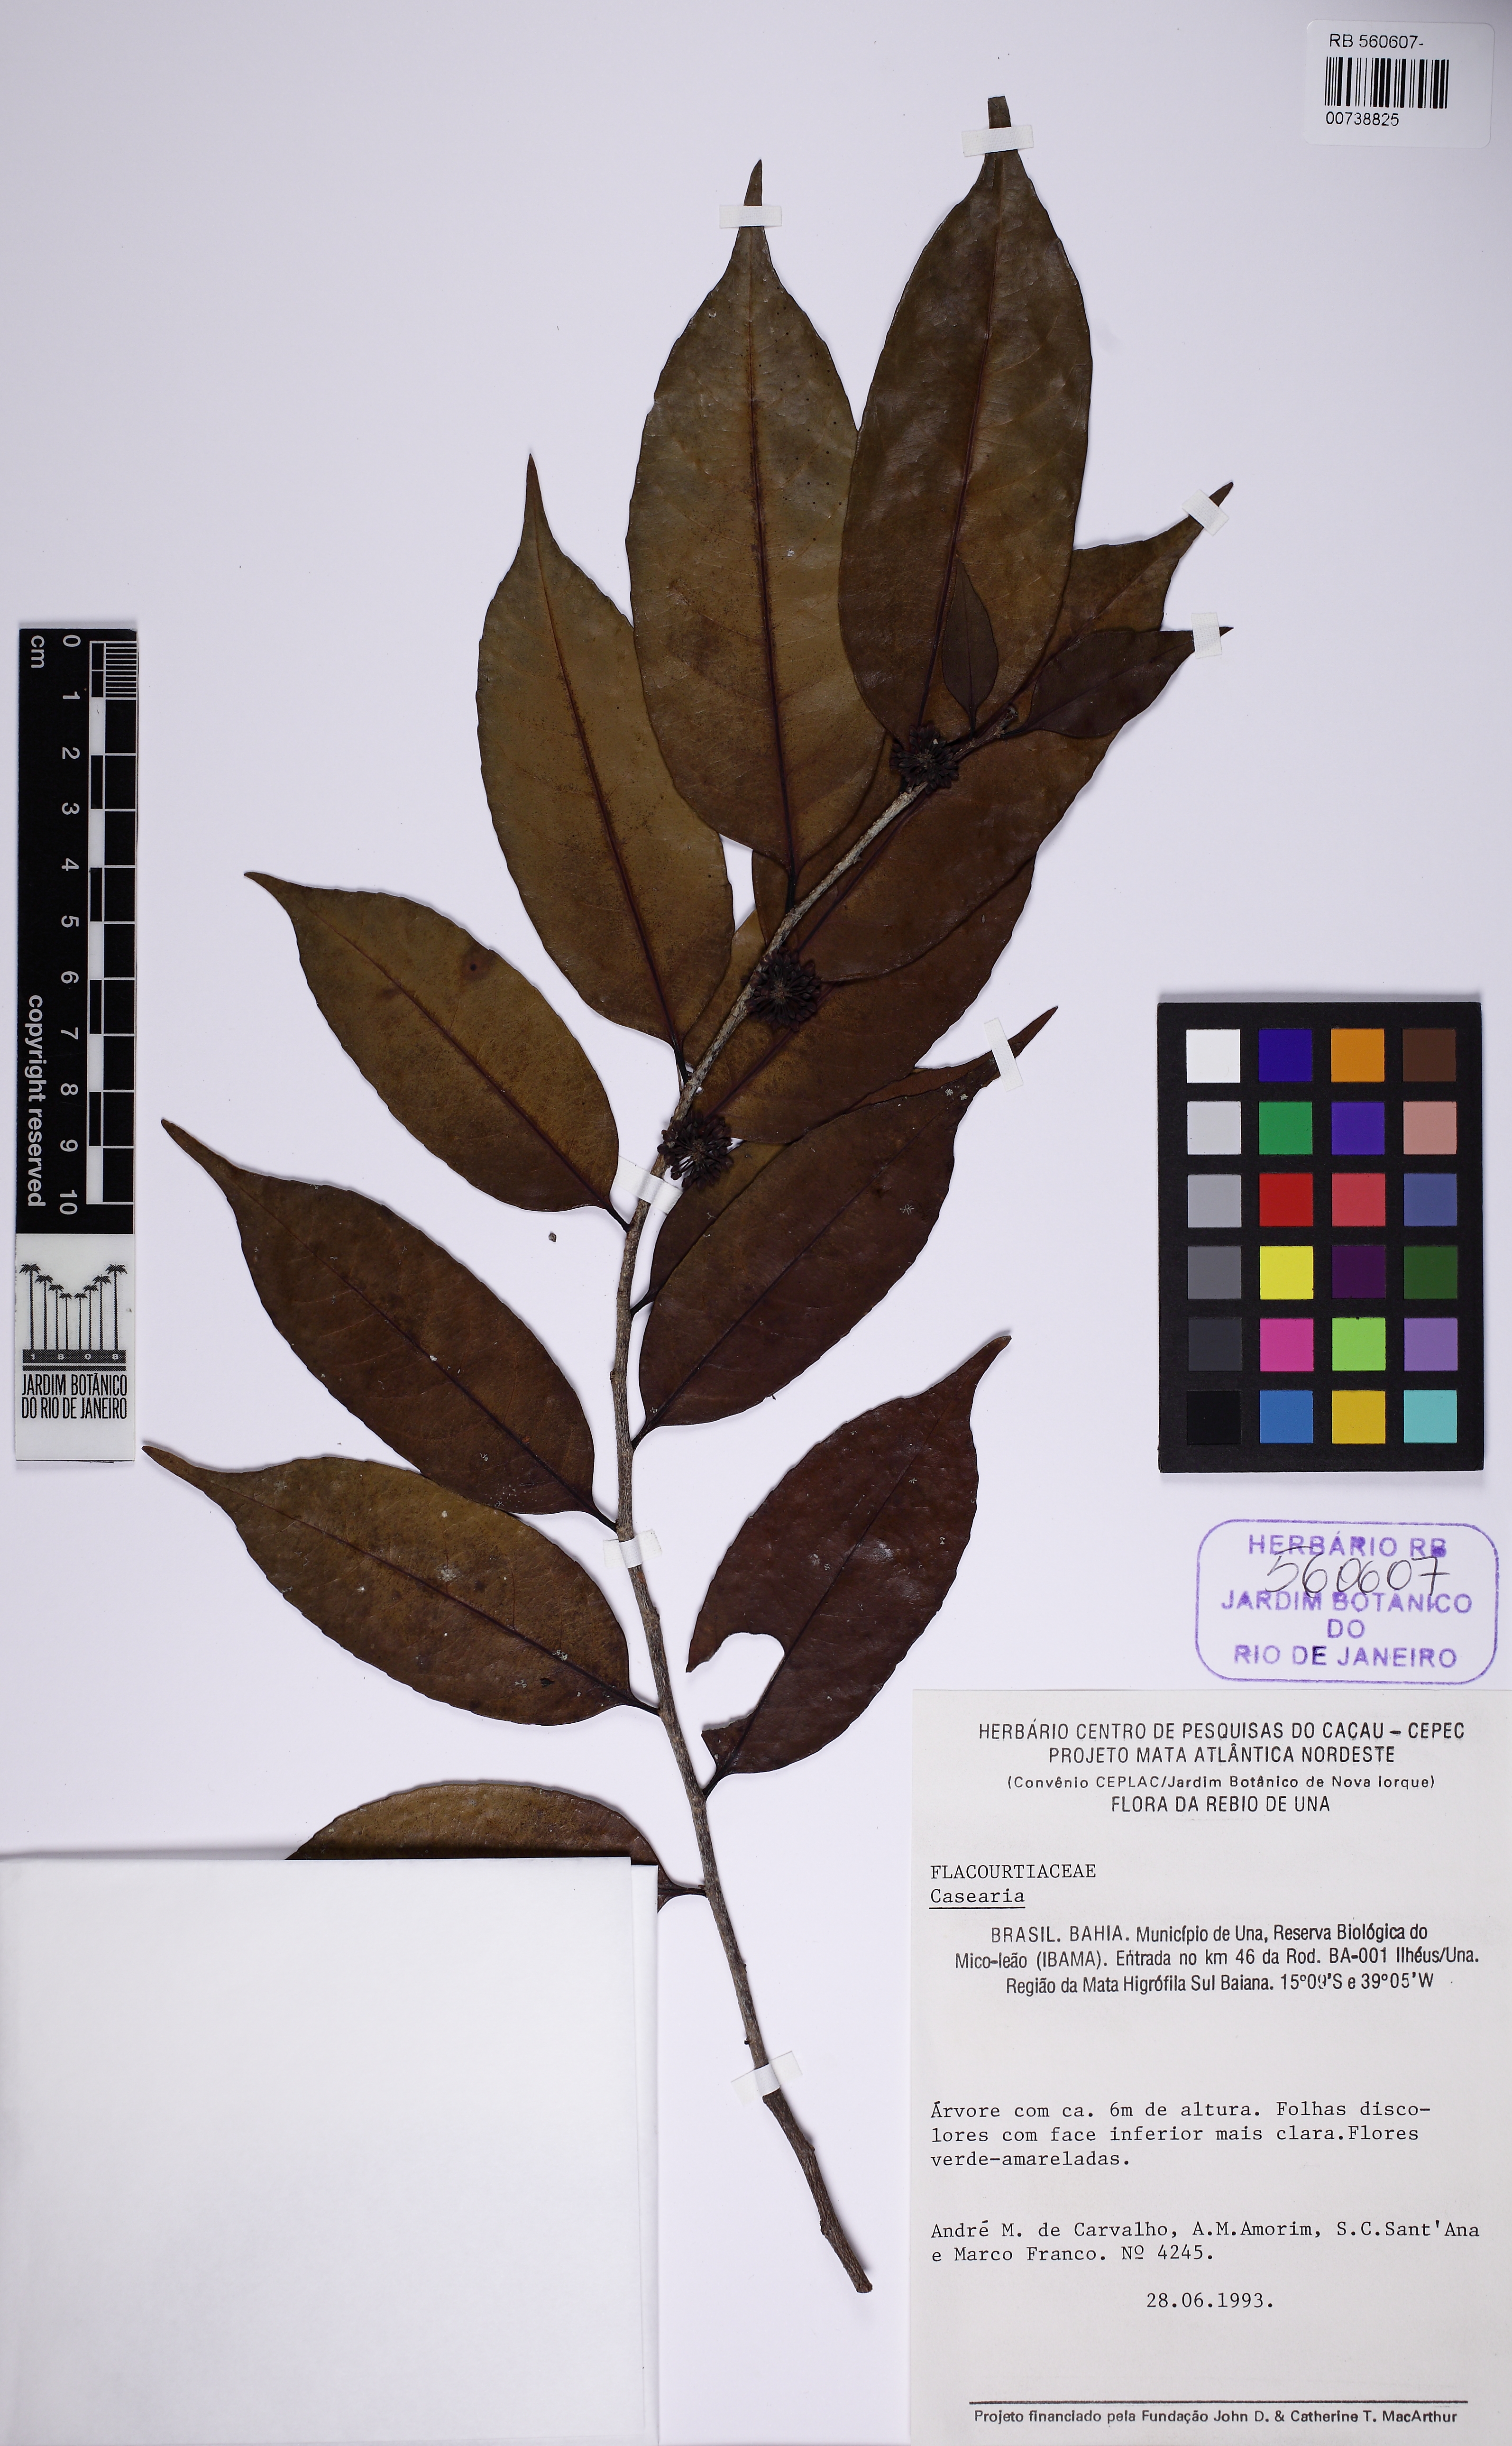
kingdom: Plantae
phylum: Tracheophyta
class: Magnoliopsida
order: Malpighiales
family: Salicaceae
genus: Casearia
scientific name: Casearia
